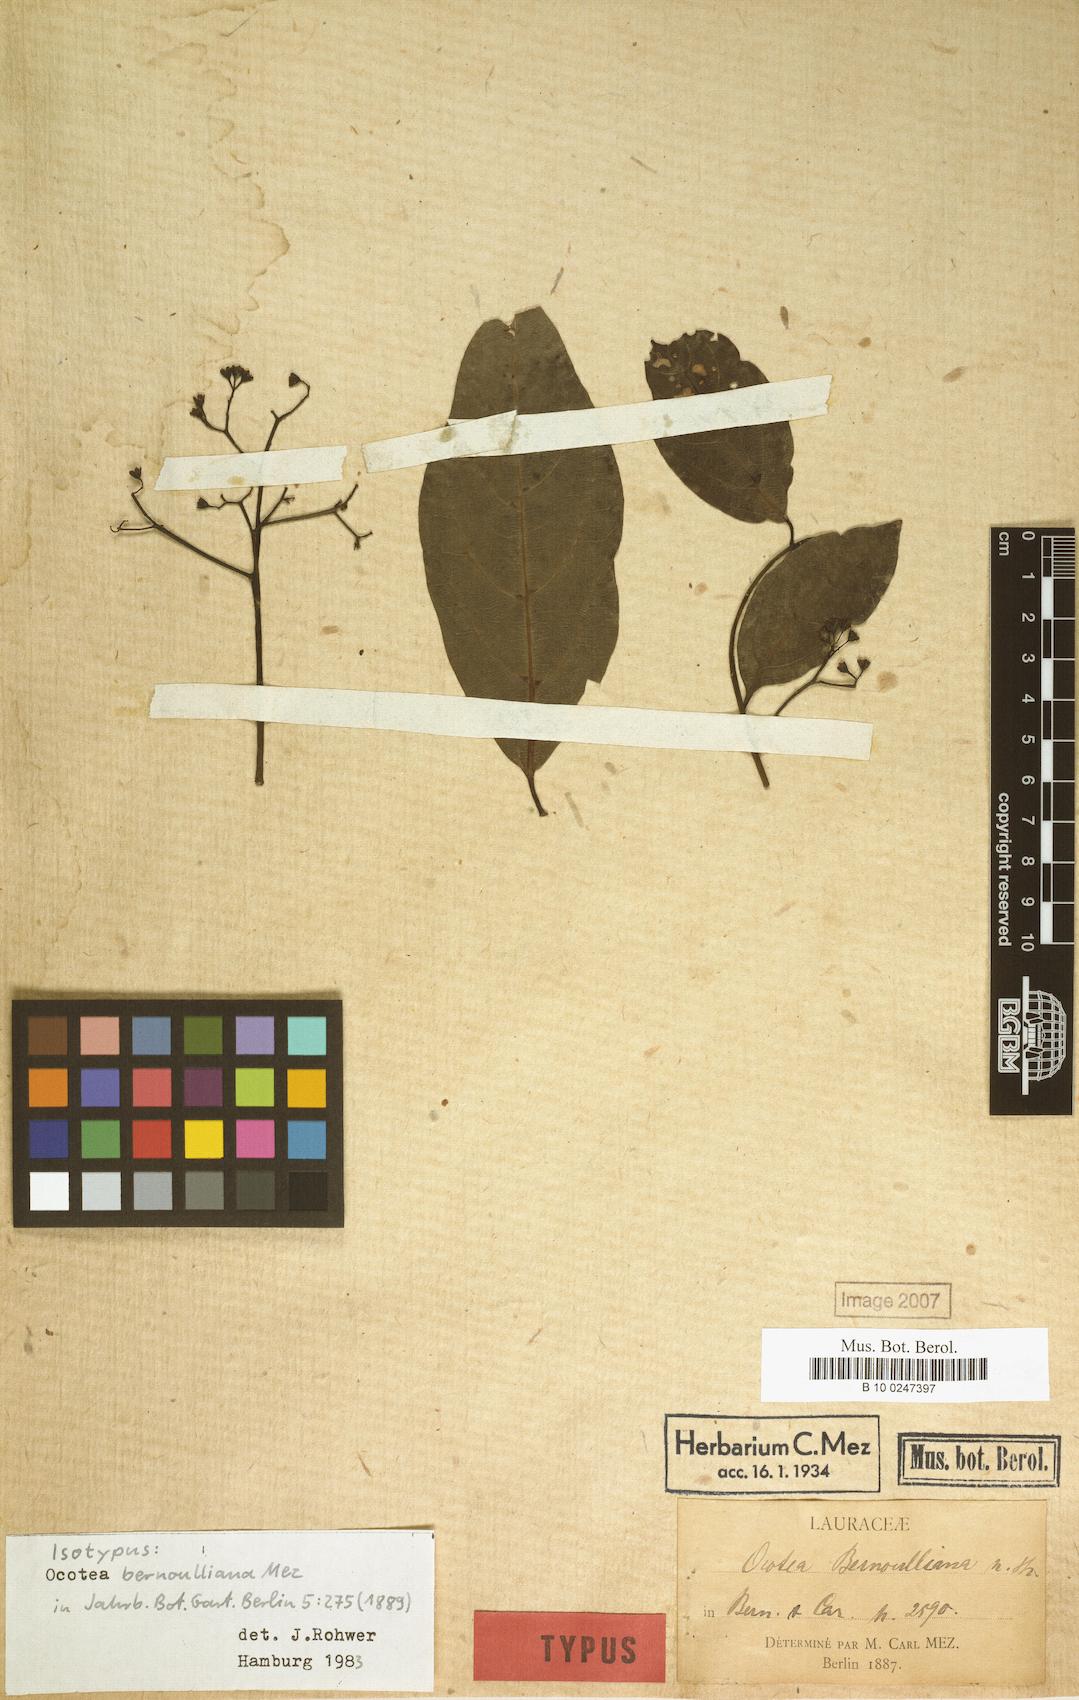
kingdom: Plantae
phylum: Tracheophyta
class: Magnoliopsida
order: Laurales
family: Lauraceae
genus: Ocotea
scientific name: Ocotea bernoulliana
